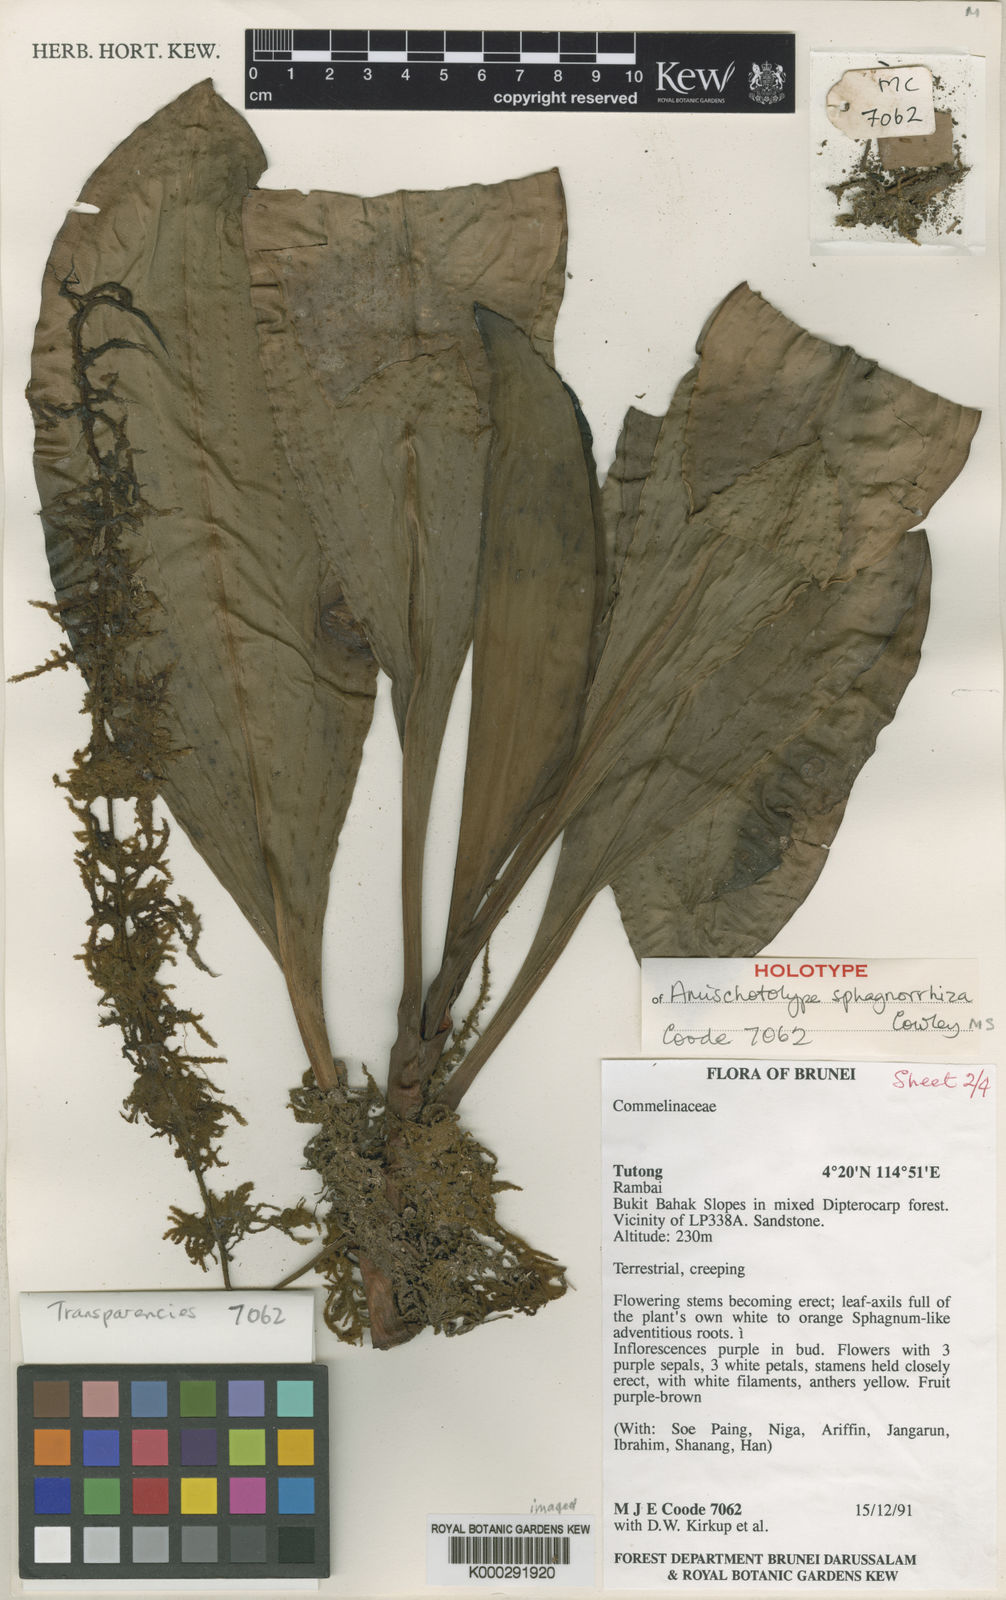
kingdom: Plantae
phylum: Tracheophyta
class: Liliopsida
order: Commelinales
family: Commelinaceae
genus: Amischotolype
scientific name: Amischotolype sphagnorrhiza
